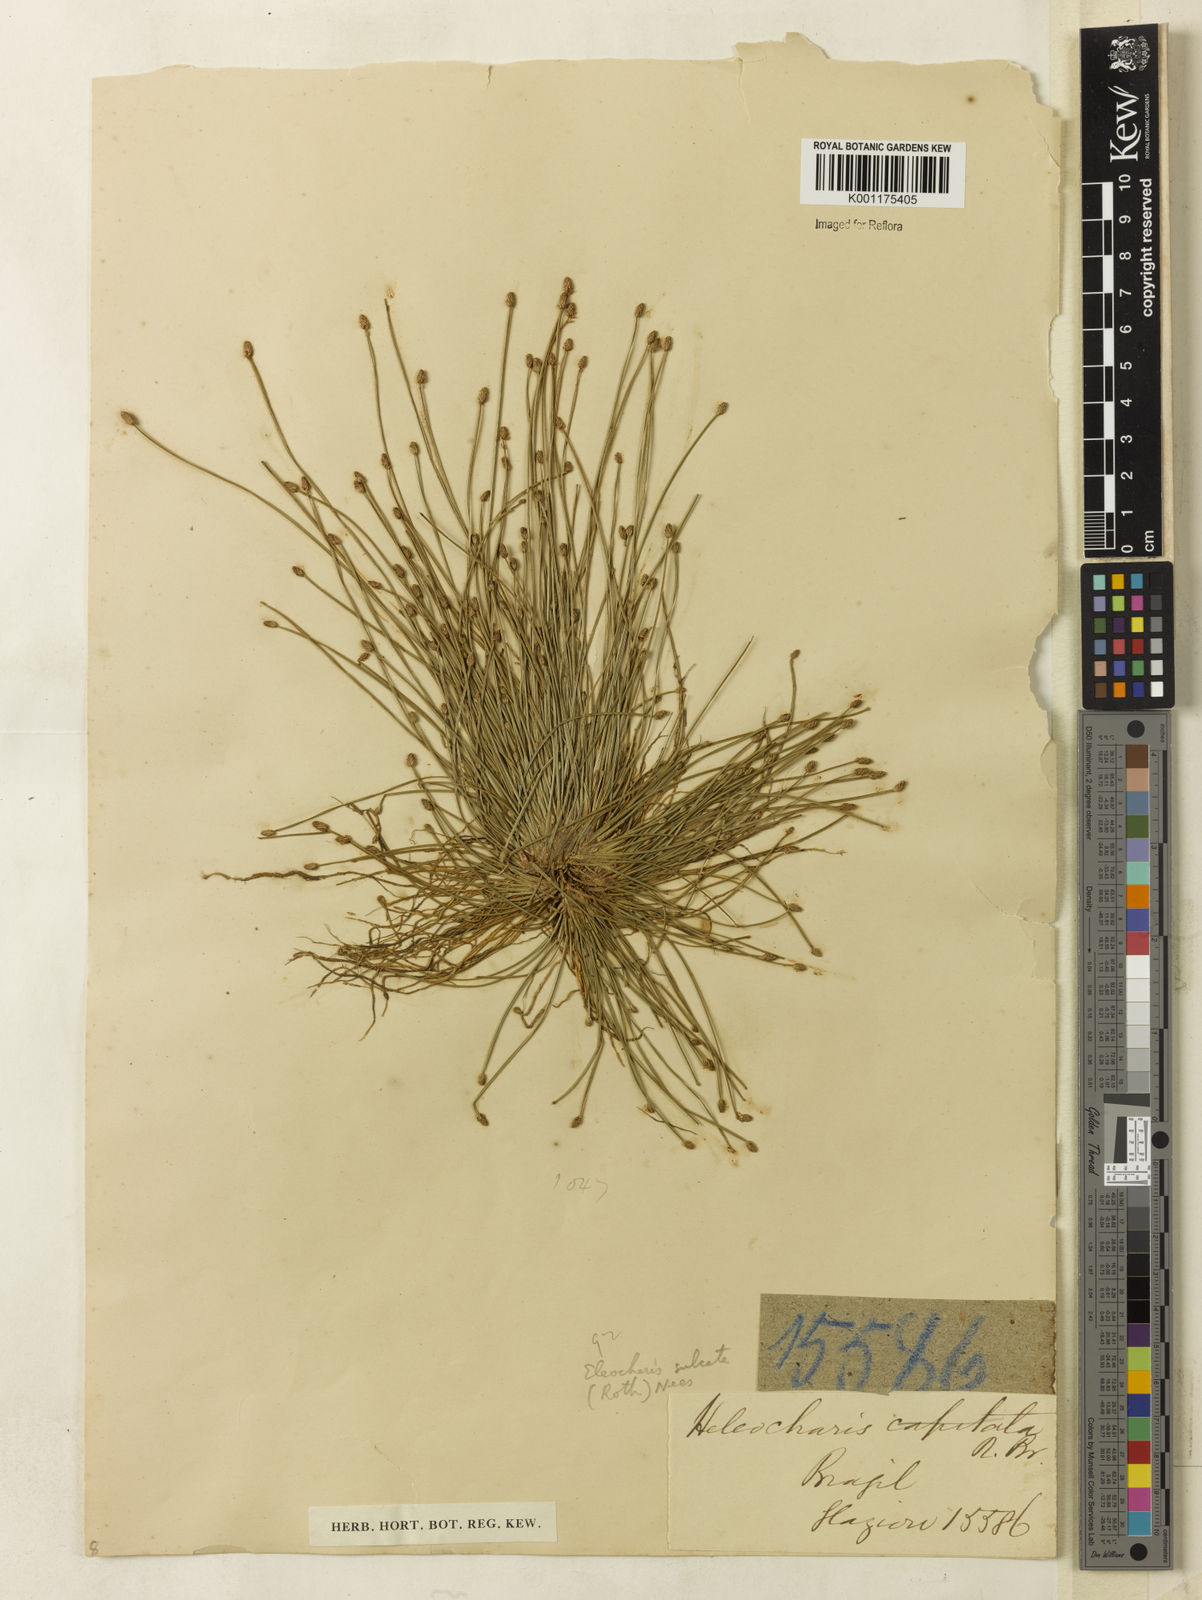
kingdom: Plantae
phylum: Tracheophyta
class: Liliopsida
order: Poales
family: Cyperaceae
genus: Eleocharis
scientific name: Eleocharis filiculmis
